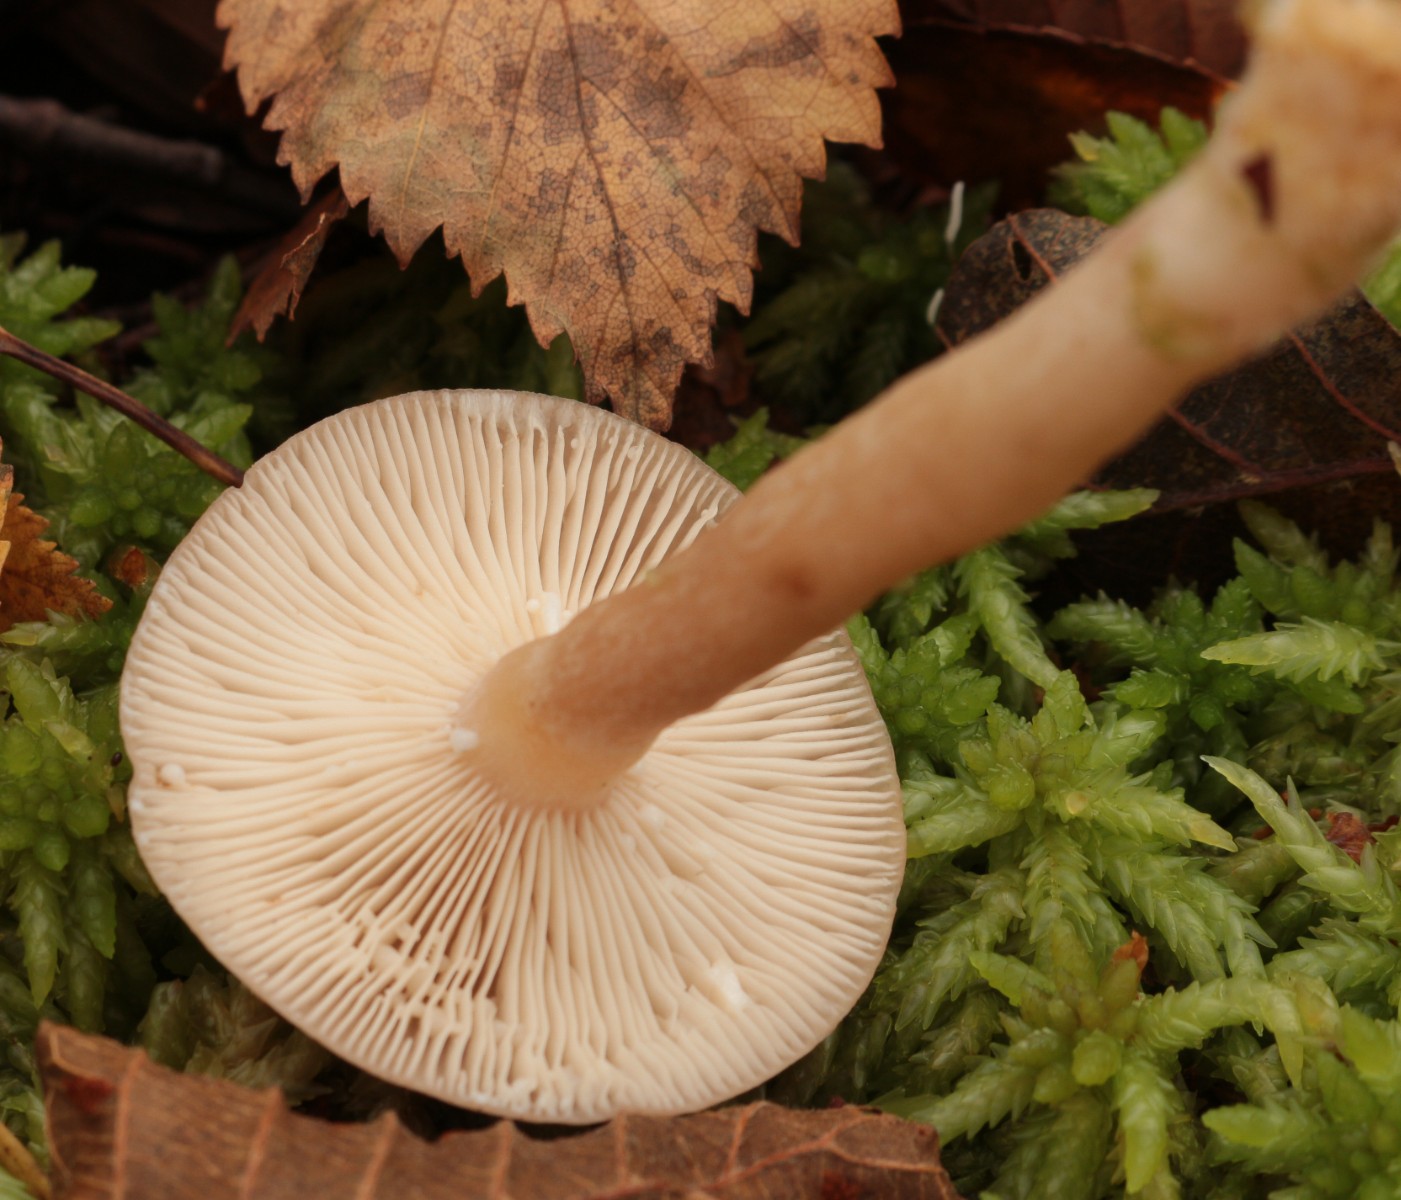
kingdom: Fungi
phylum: Basidiomycota
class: Agaricomycetes
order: Russulales
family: Russulaceae
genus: Lactarius
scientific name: Lactarius tabidus
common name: rynket mælkehat
